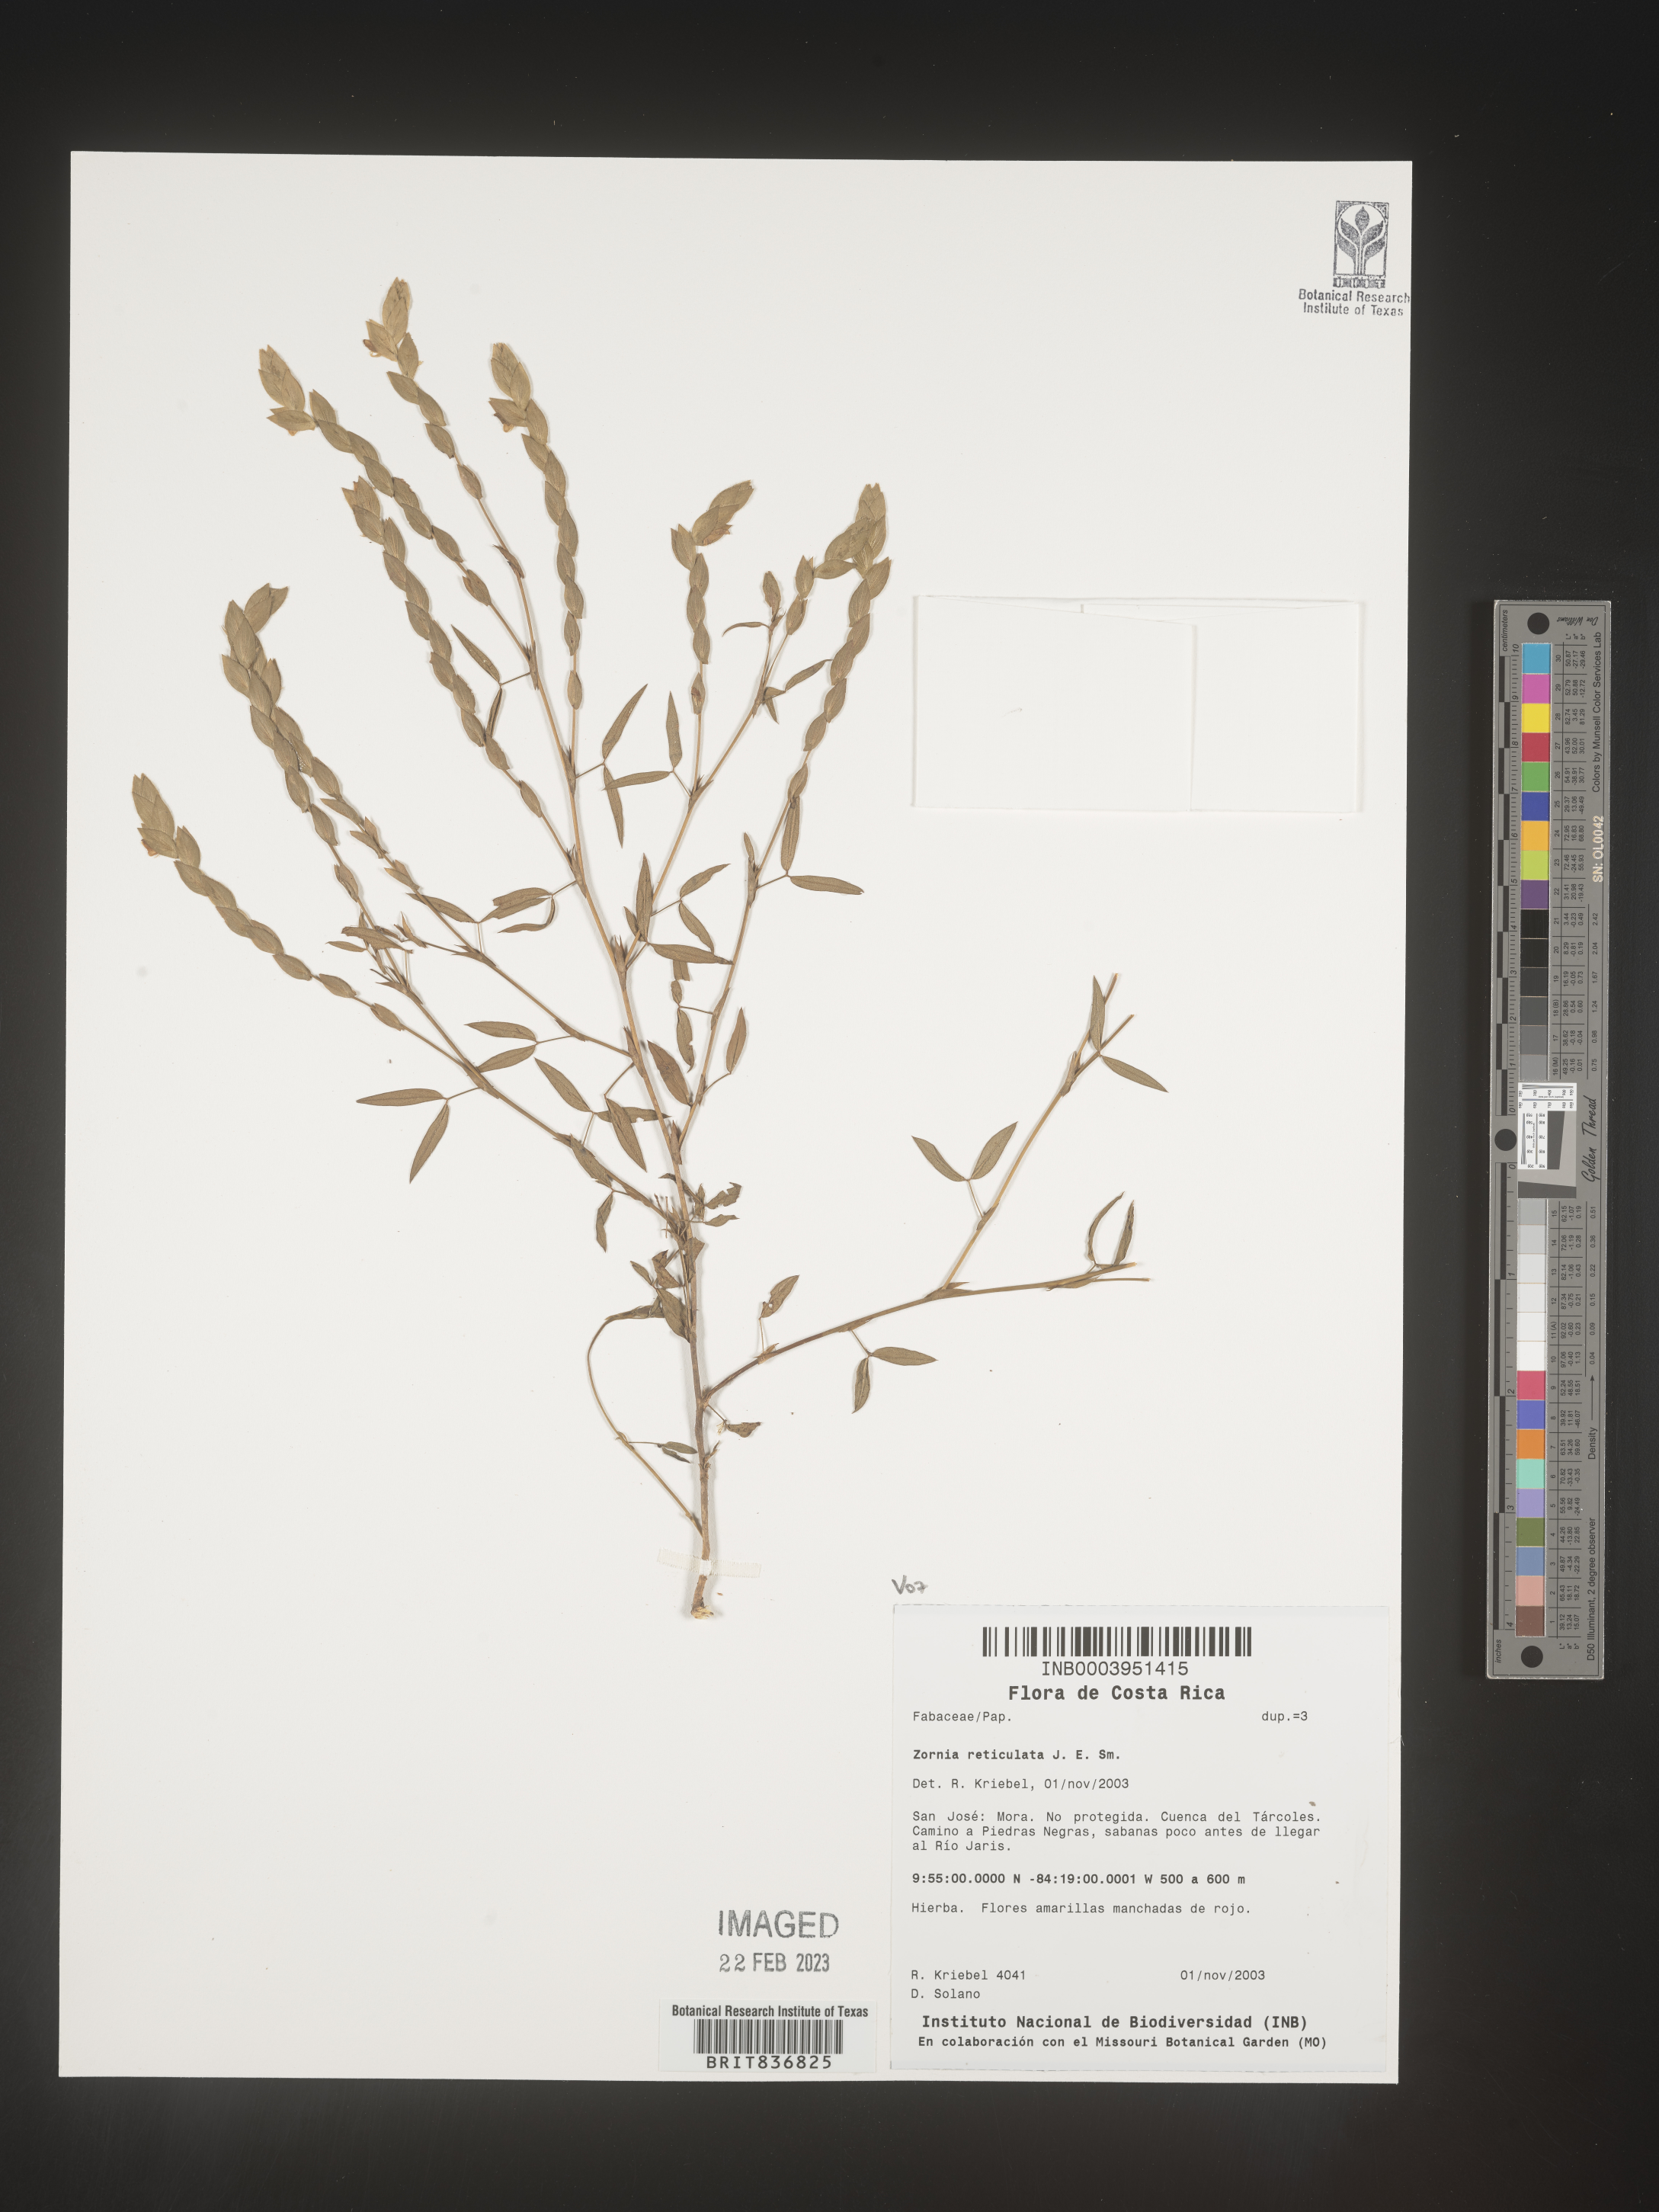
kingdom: Plantae
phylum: Tracheophyta
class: Magnoliopsida
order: Fabales
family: Fabaceae
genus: Zornia
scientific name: Zornia
